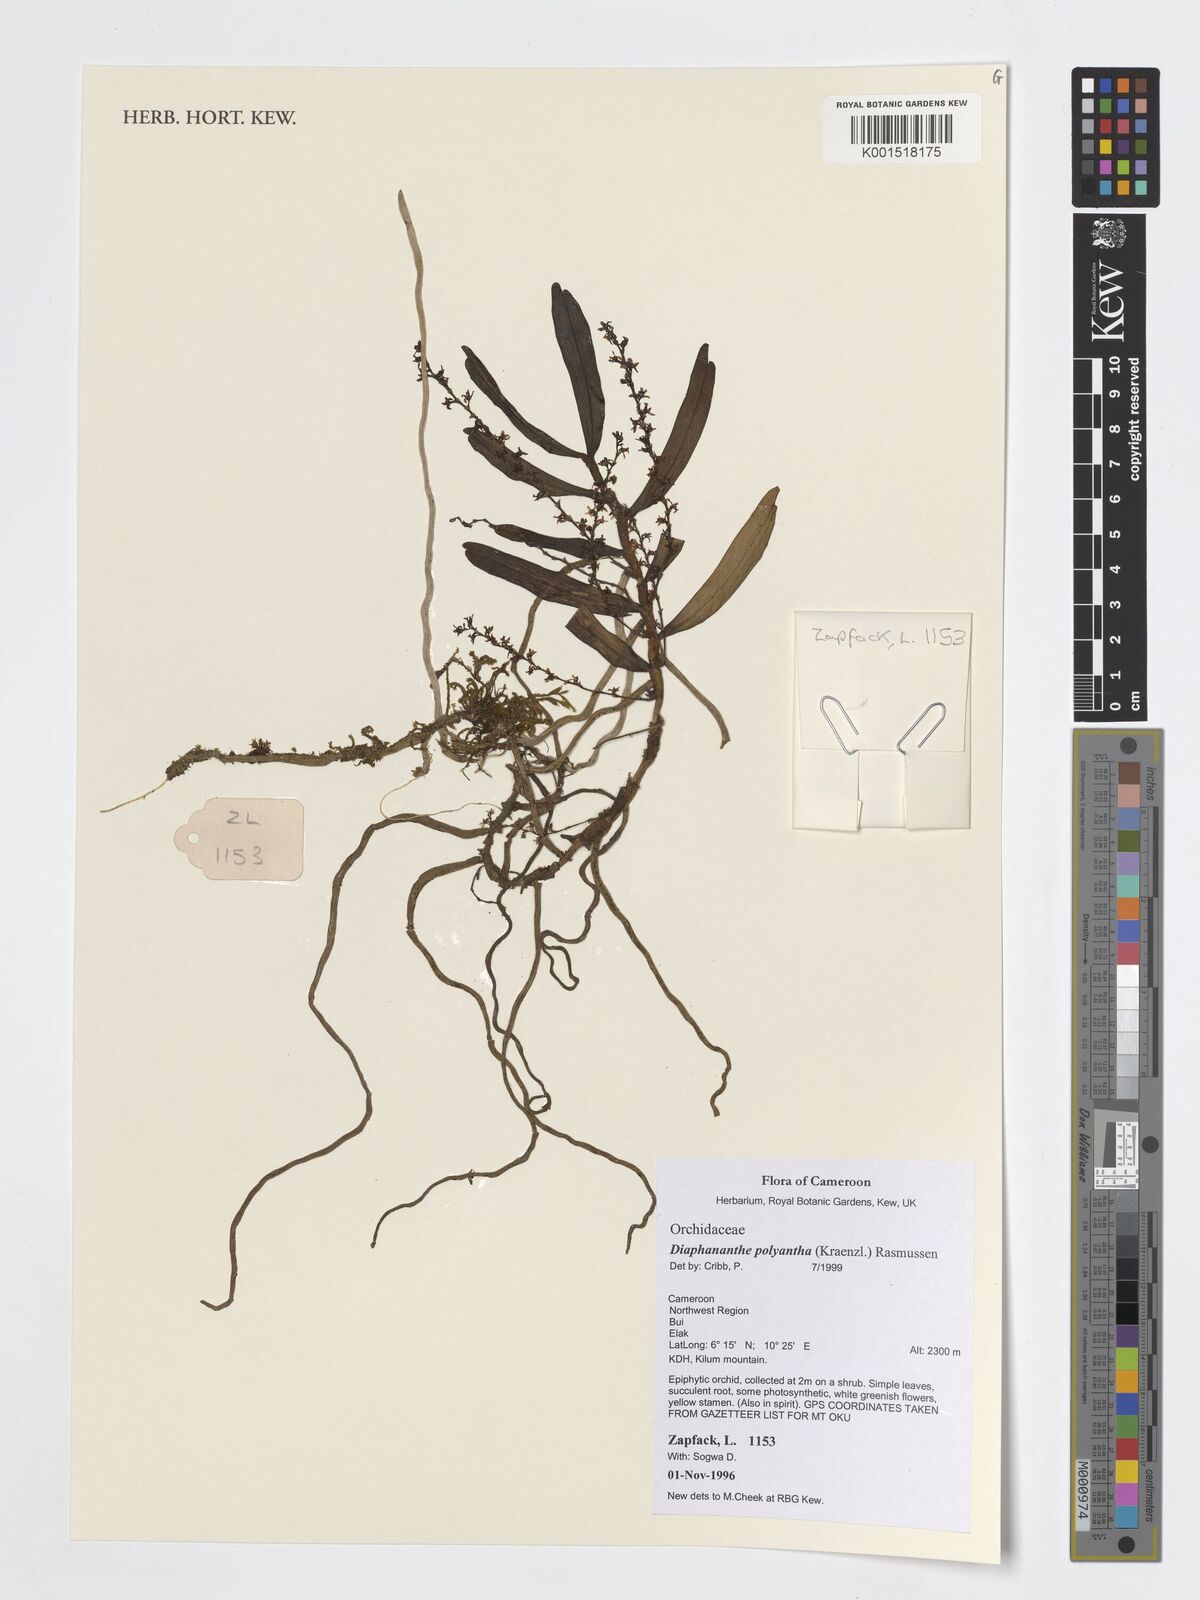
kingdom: Plantae
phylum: Tracheophyta
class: Liliopsida
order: Asparagales
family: Orchidaceae
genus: Rhipidoglossum
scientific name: Rhipidoglossum polyanthum
